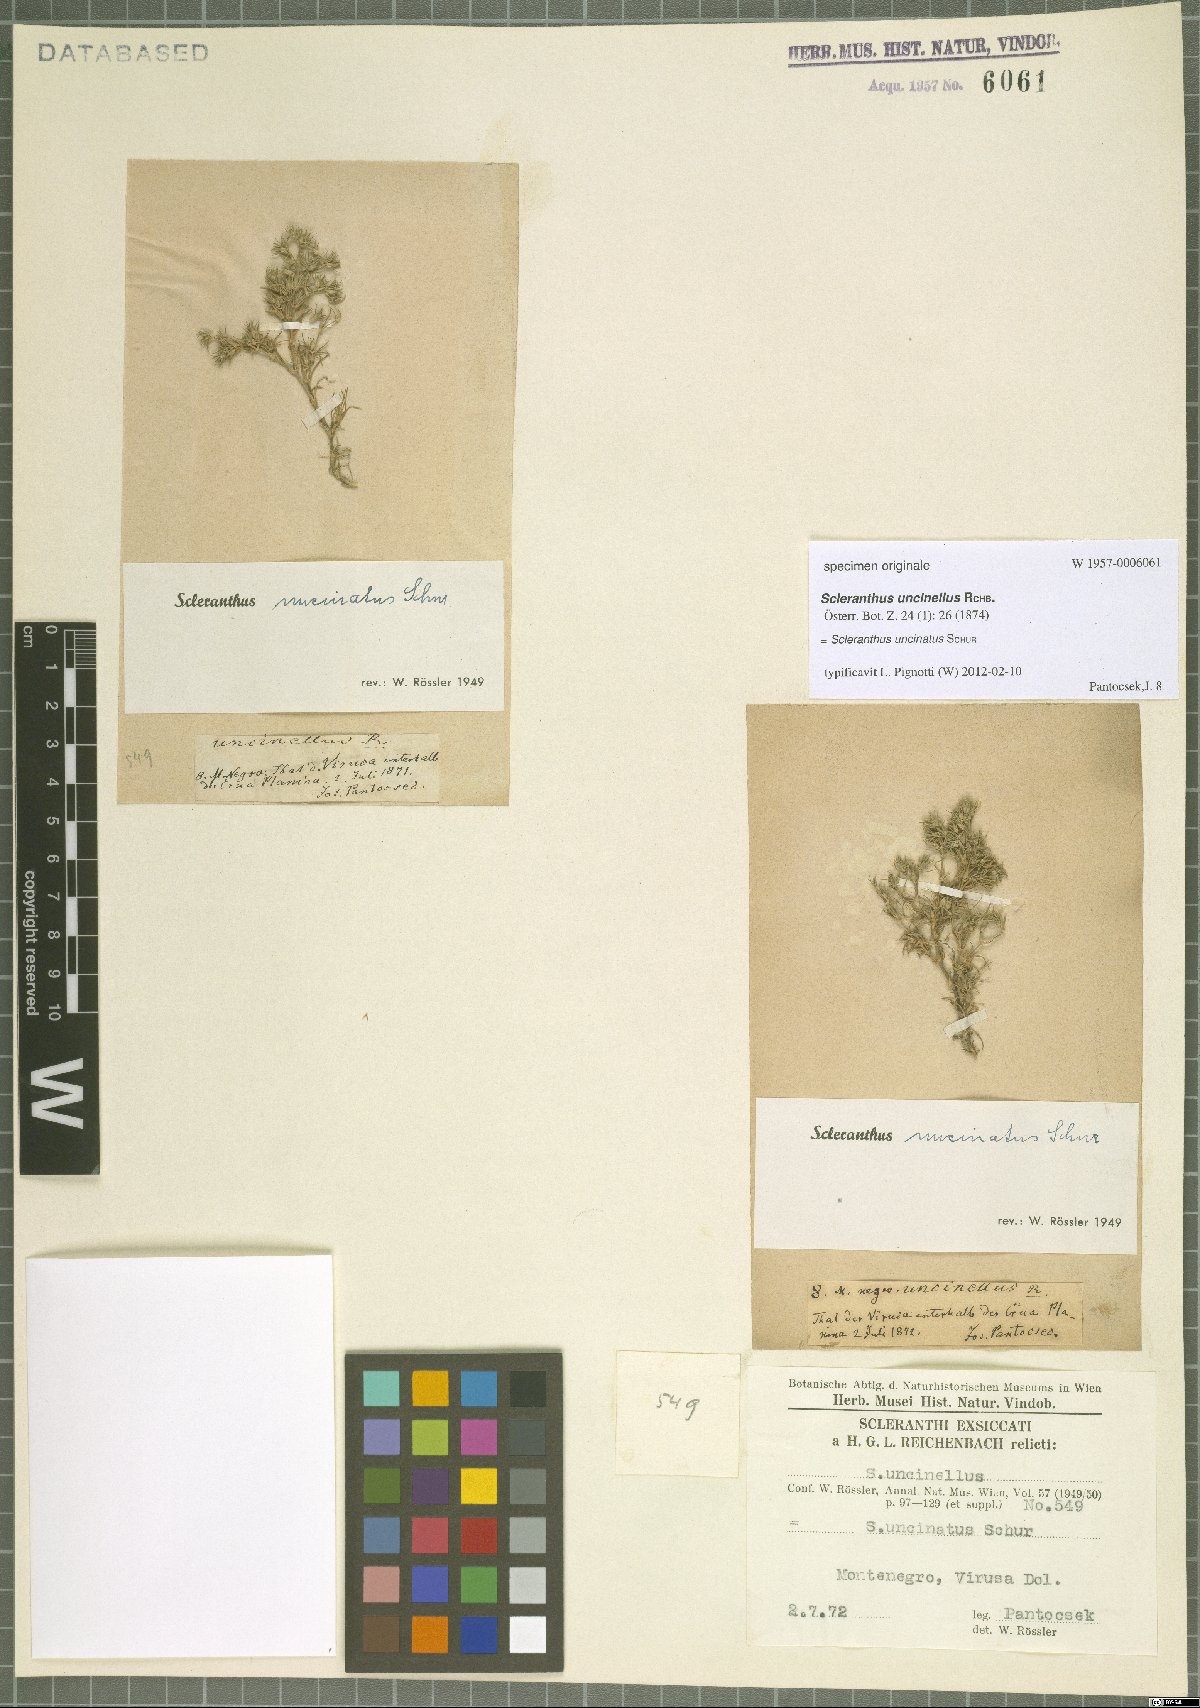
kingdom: Plantae
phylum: Tracheophyta
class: Magnoliopsida
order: Caryophyllales
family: Caryophyllaceae
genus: Scleranthus
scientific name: Scleranthus uncinatus
